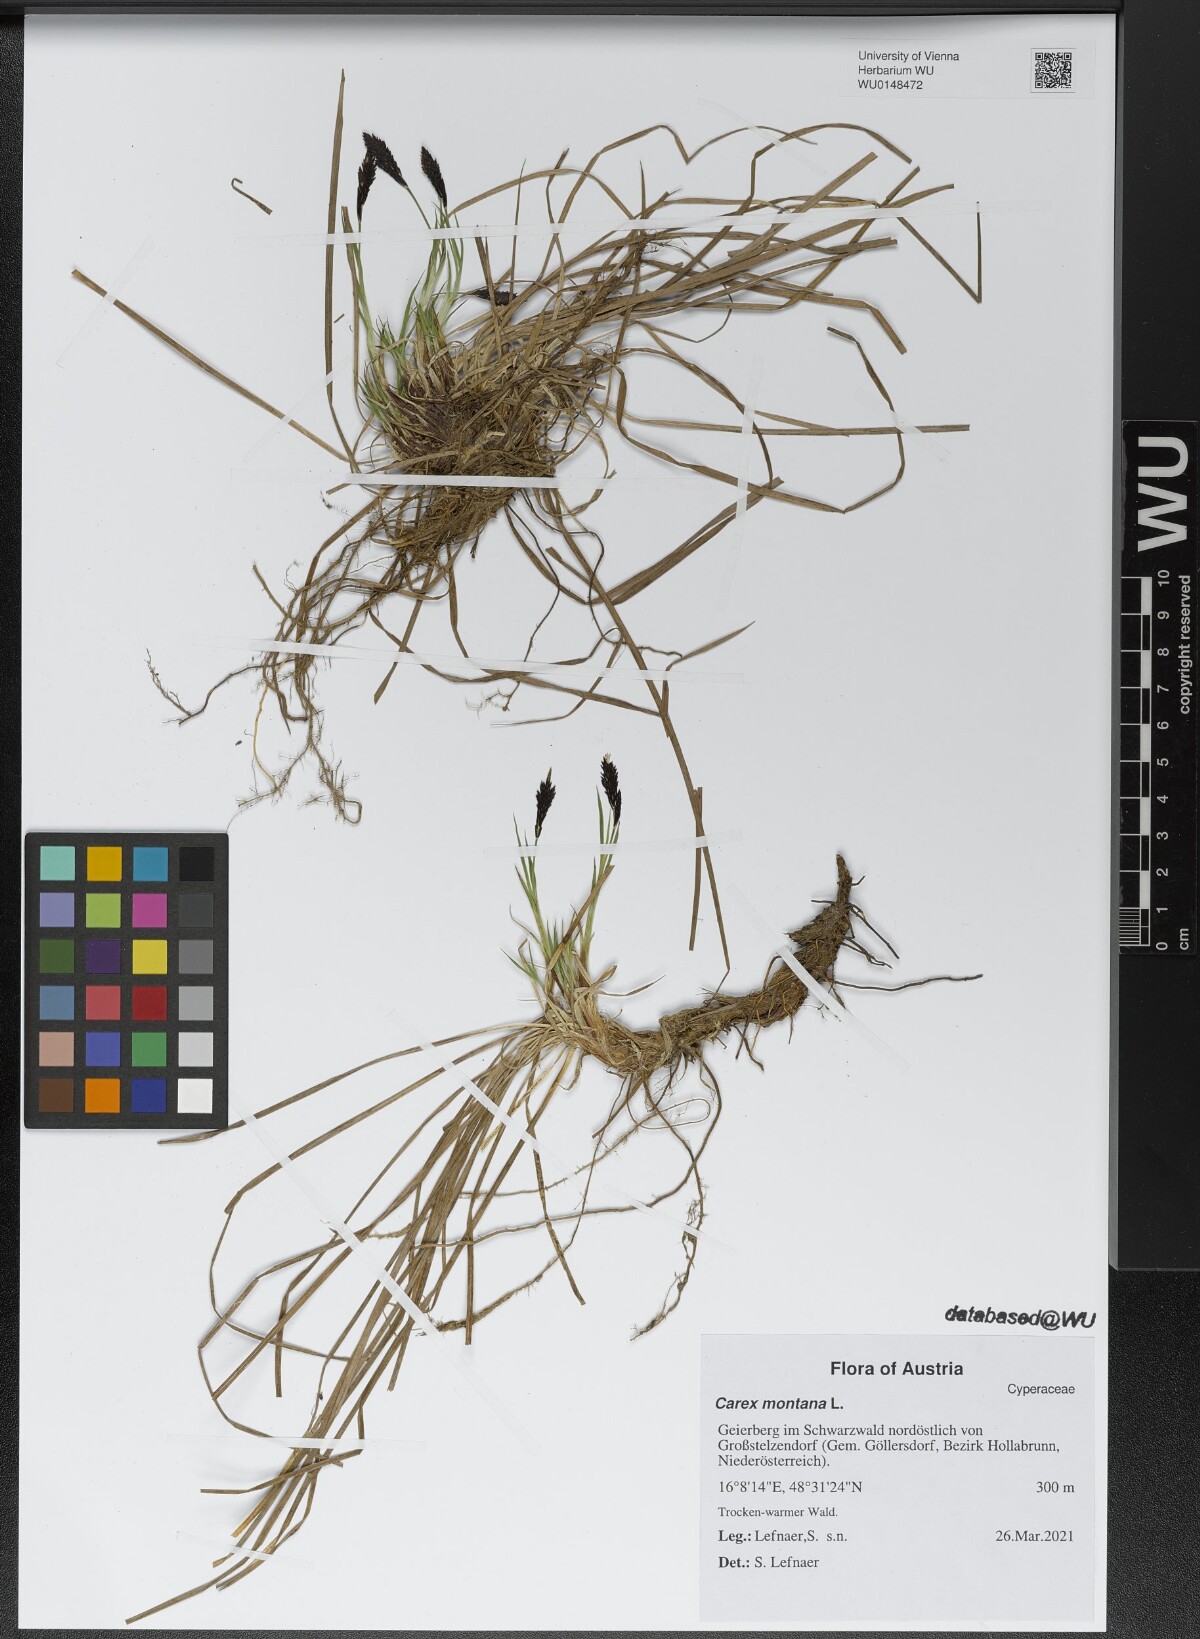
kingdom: Plantae
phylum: Tracheophyta
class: Liliopsida
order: Poales
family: Cyperaceae
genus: Carex
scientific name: Carex montana
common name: Soft-leaved sedge
